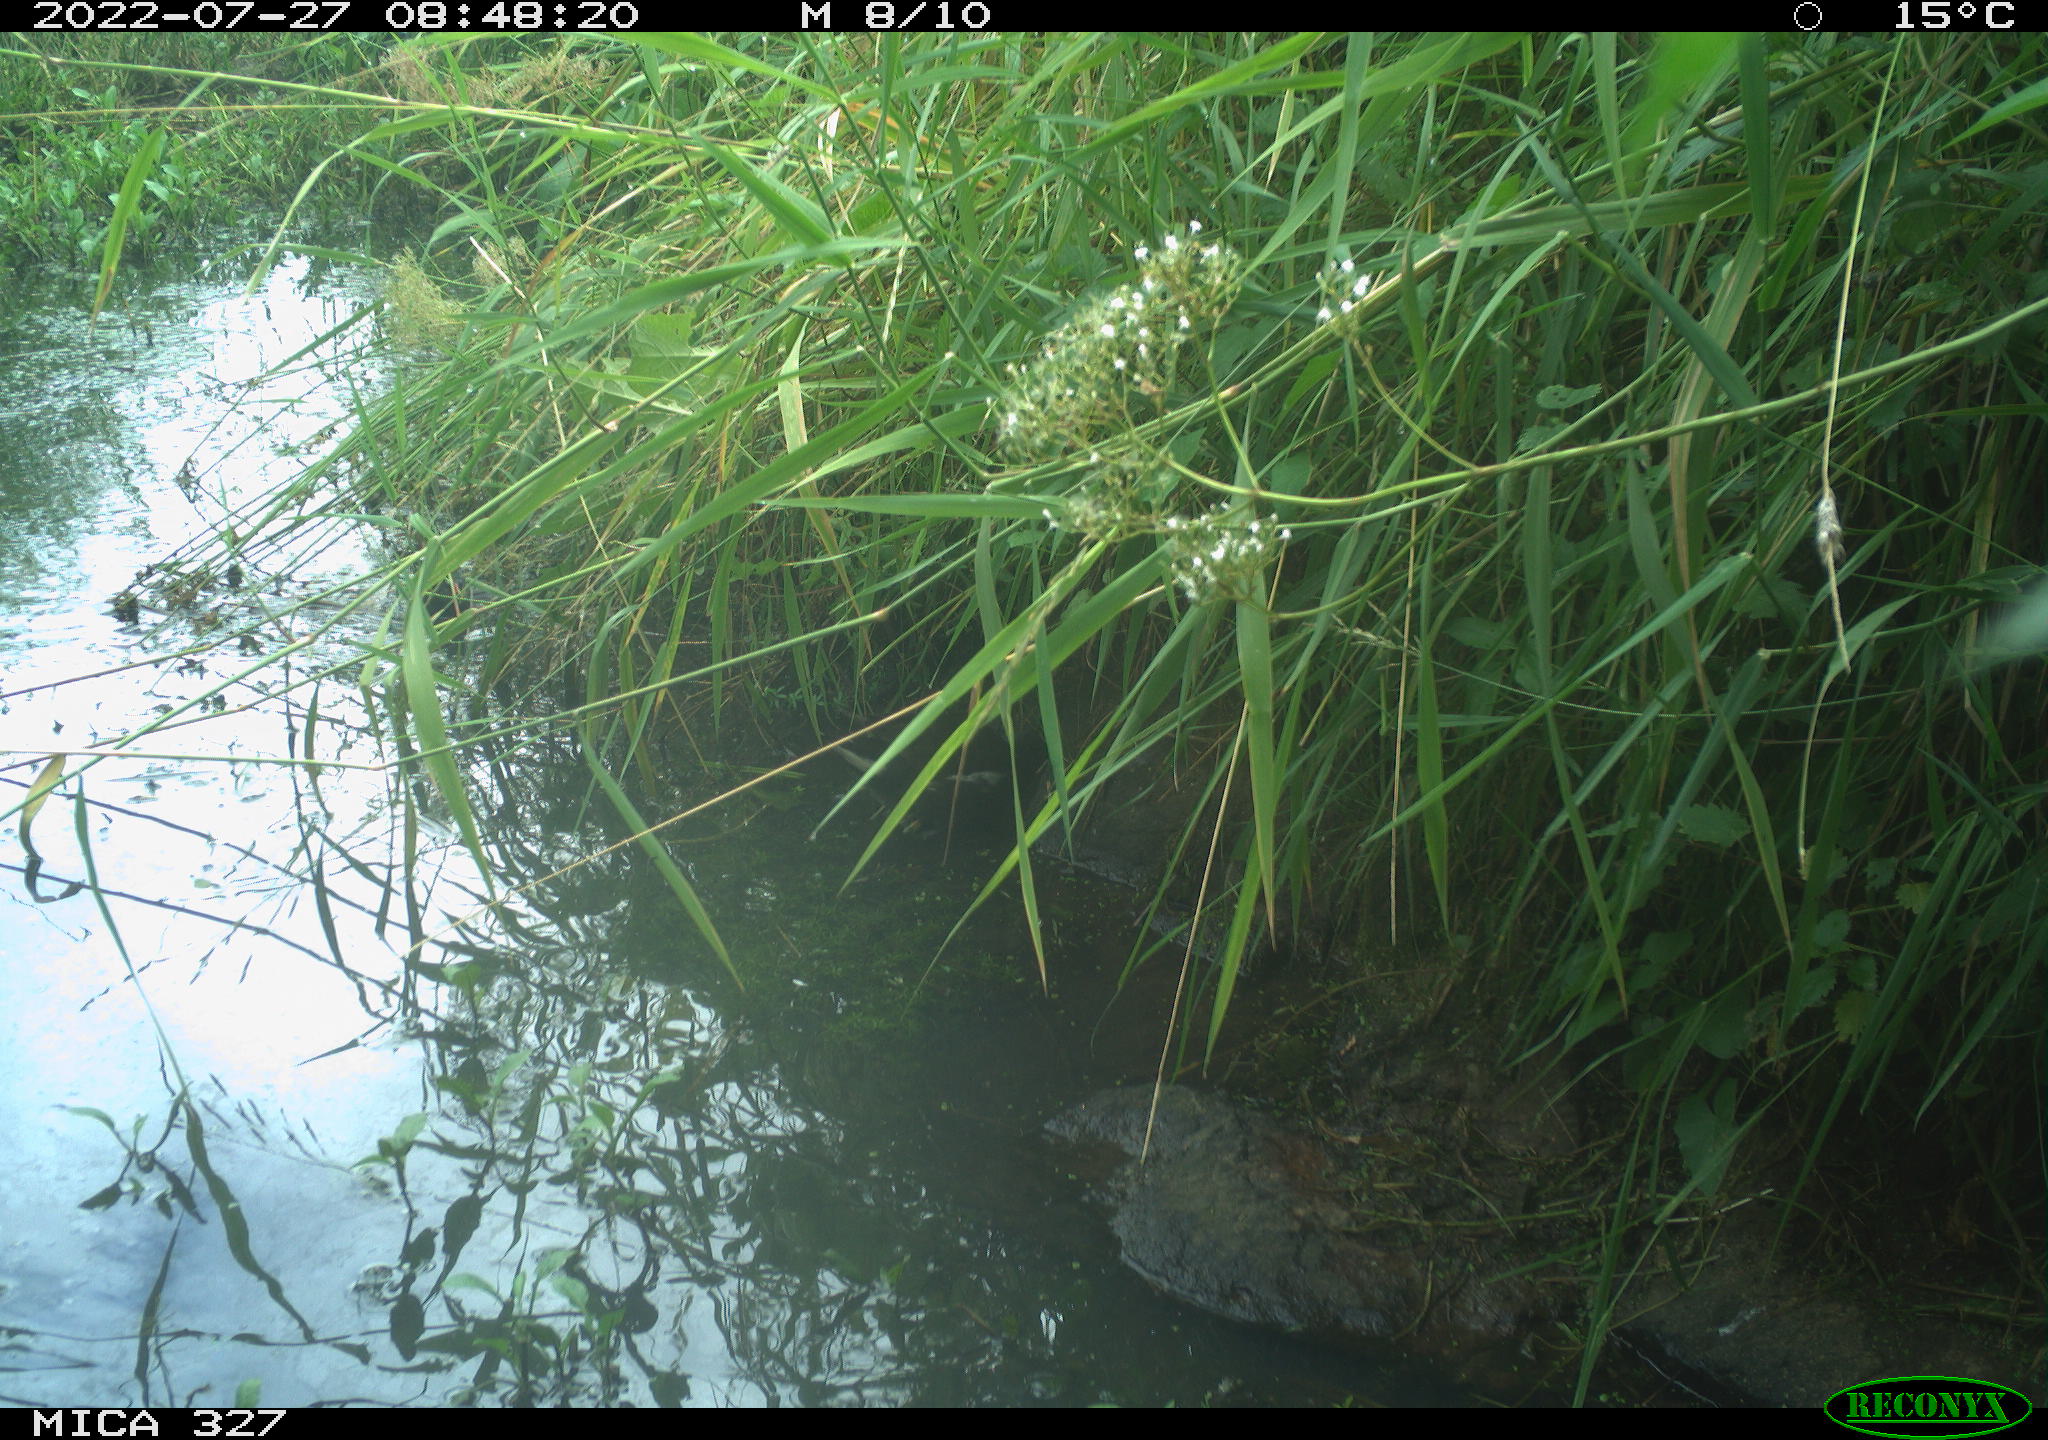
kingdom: Animalia
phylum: Chordata
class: Aves
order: Gruiformes
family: Rallidae
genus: Gallinula
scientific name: Gallinula chloropus
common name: Common moorhen
